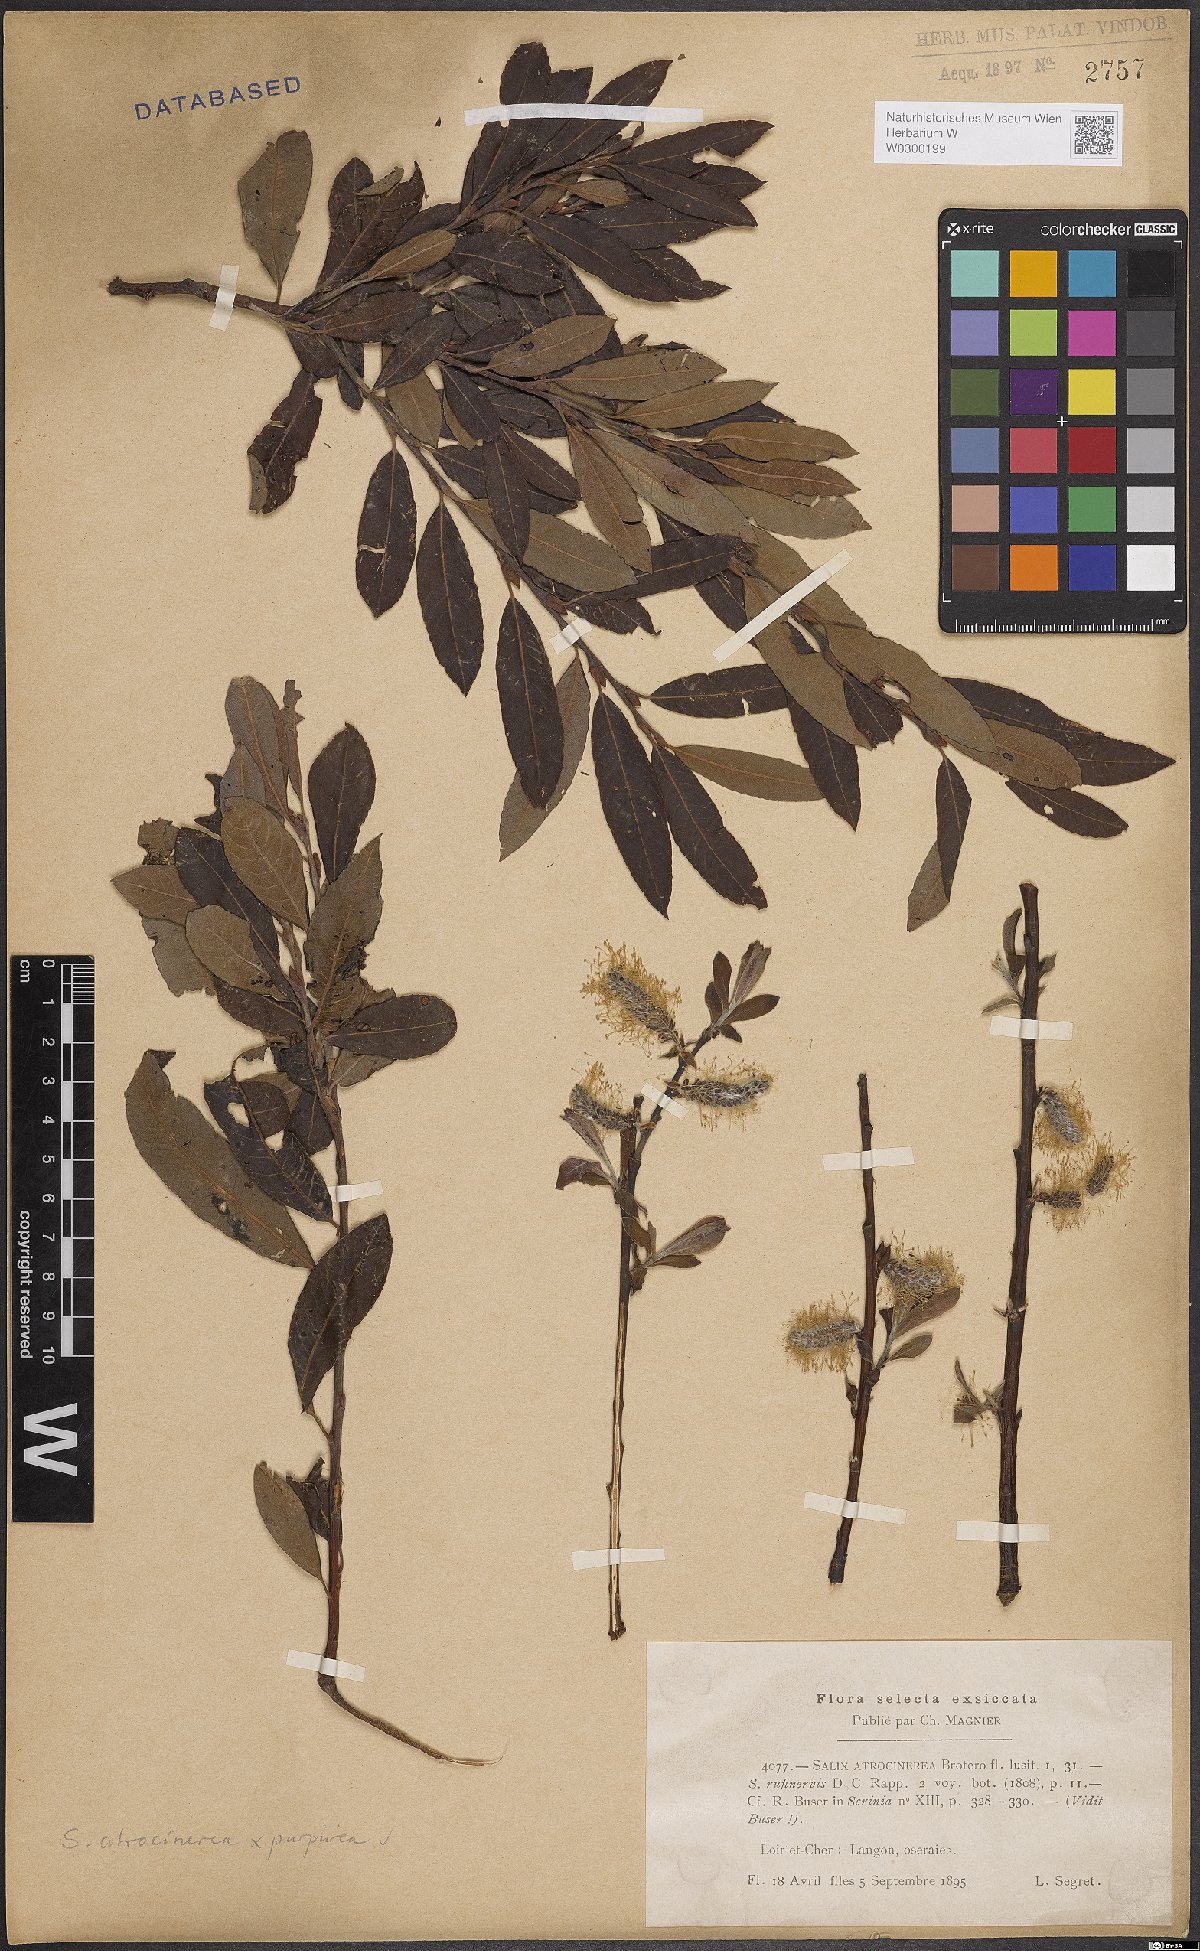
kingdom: Plantae
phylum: Tracheophyta
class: Magnoliopsida
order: Malpighiales
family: Salicaceae
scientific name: Salicaceae
